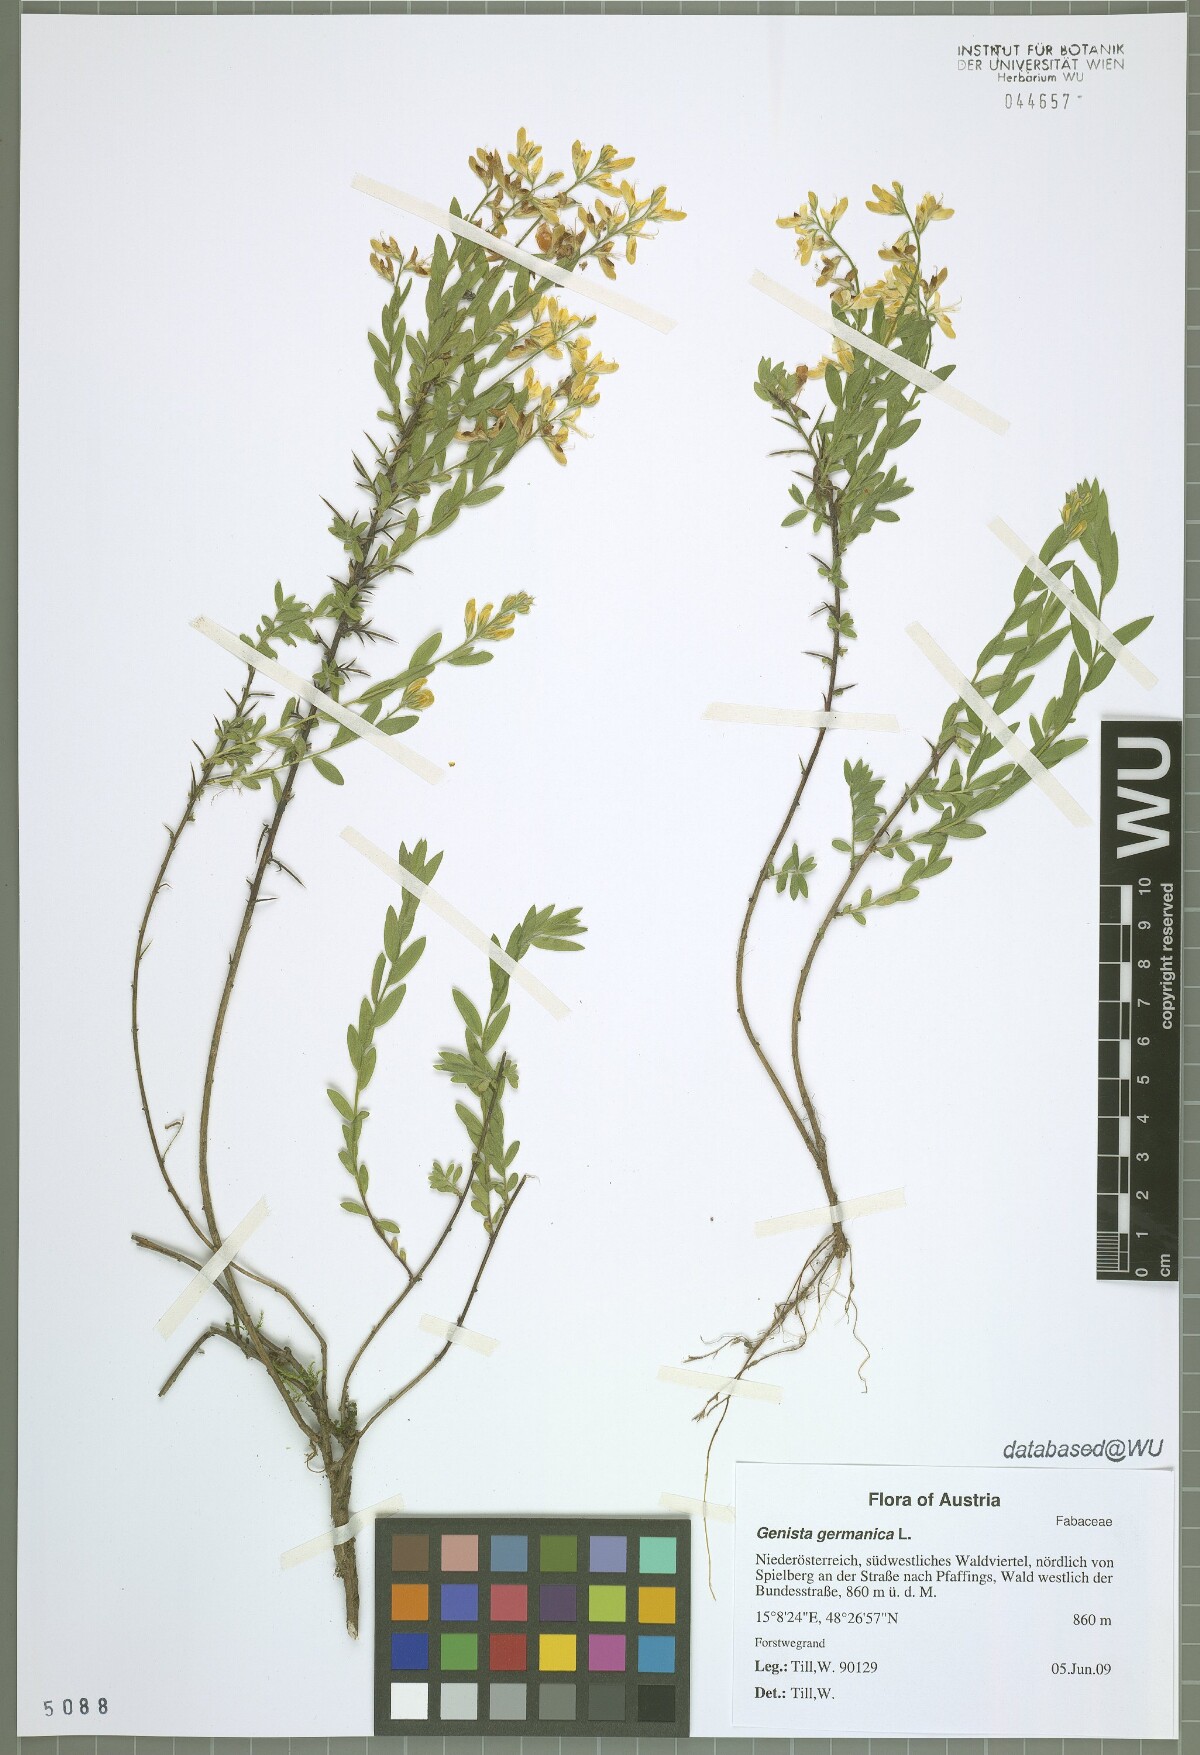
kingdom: Plantae
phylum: Tracheophyta
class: Magnoliopsida
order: Fabales
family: Fabaceae
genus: Genista
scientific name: Genista germanica
